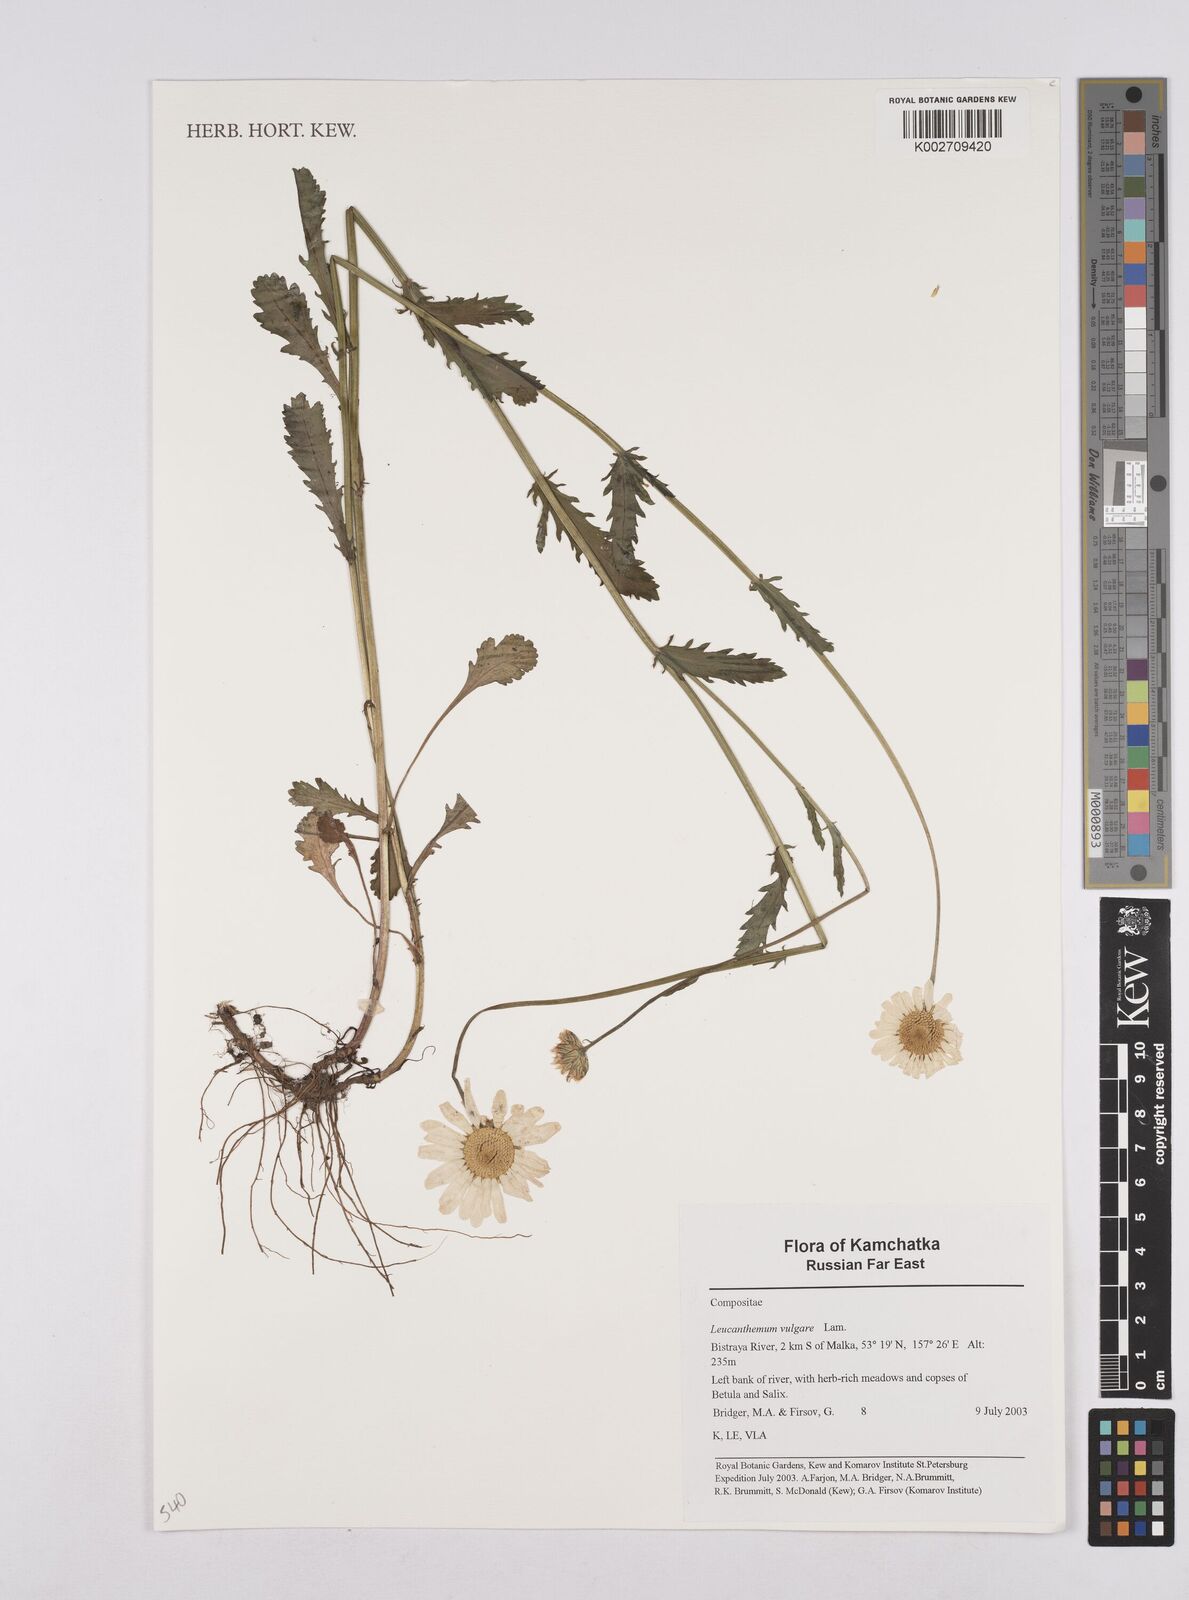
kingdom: Plantae
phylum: Tracheophyta
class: Magnoliopsida
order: Asterales
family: Asteraceae
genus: Leucanthemum
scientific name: Leucanthemum vulgare
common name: Oxeye daisy
